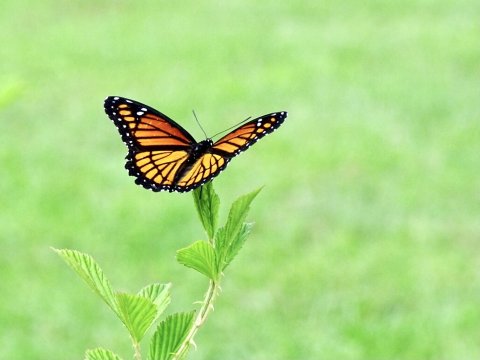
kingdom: Animalia
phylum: Arthropoda
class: Insecta
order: Lepidoptera
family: Nymphalidae
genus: Limenitis
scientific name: Limenitis archippus
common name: Viceroy
